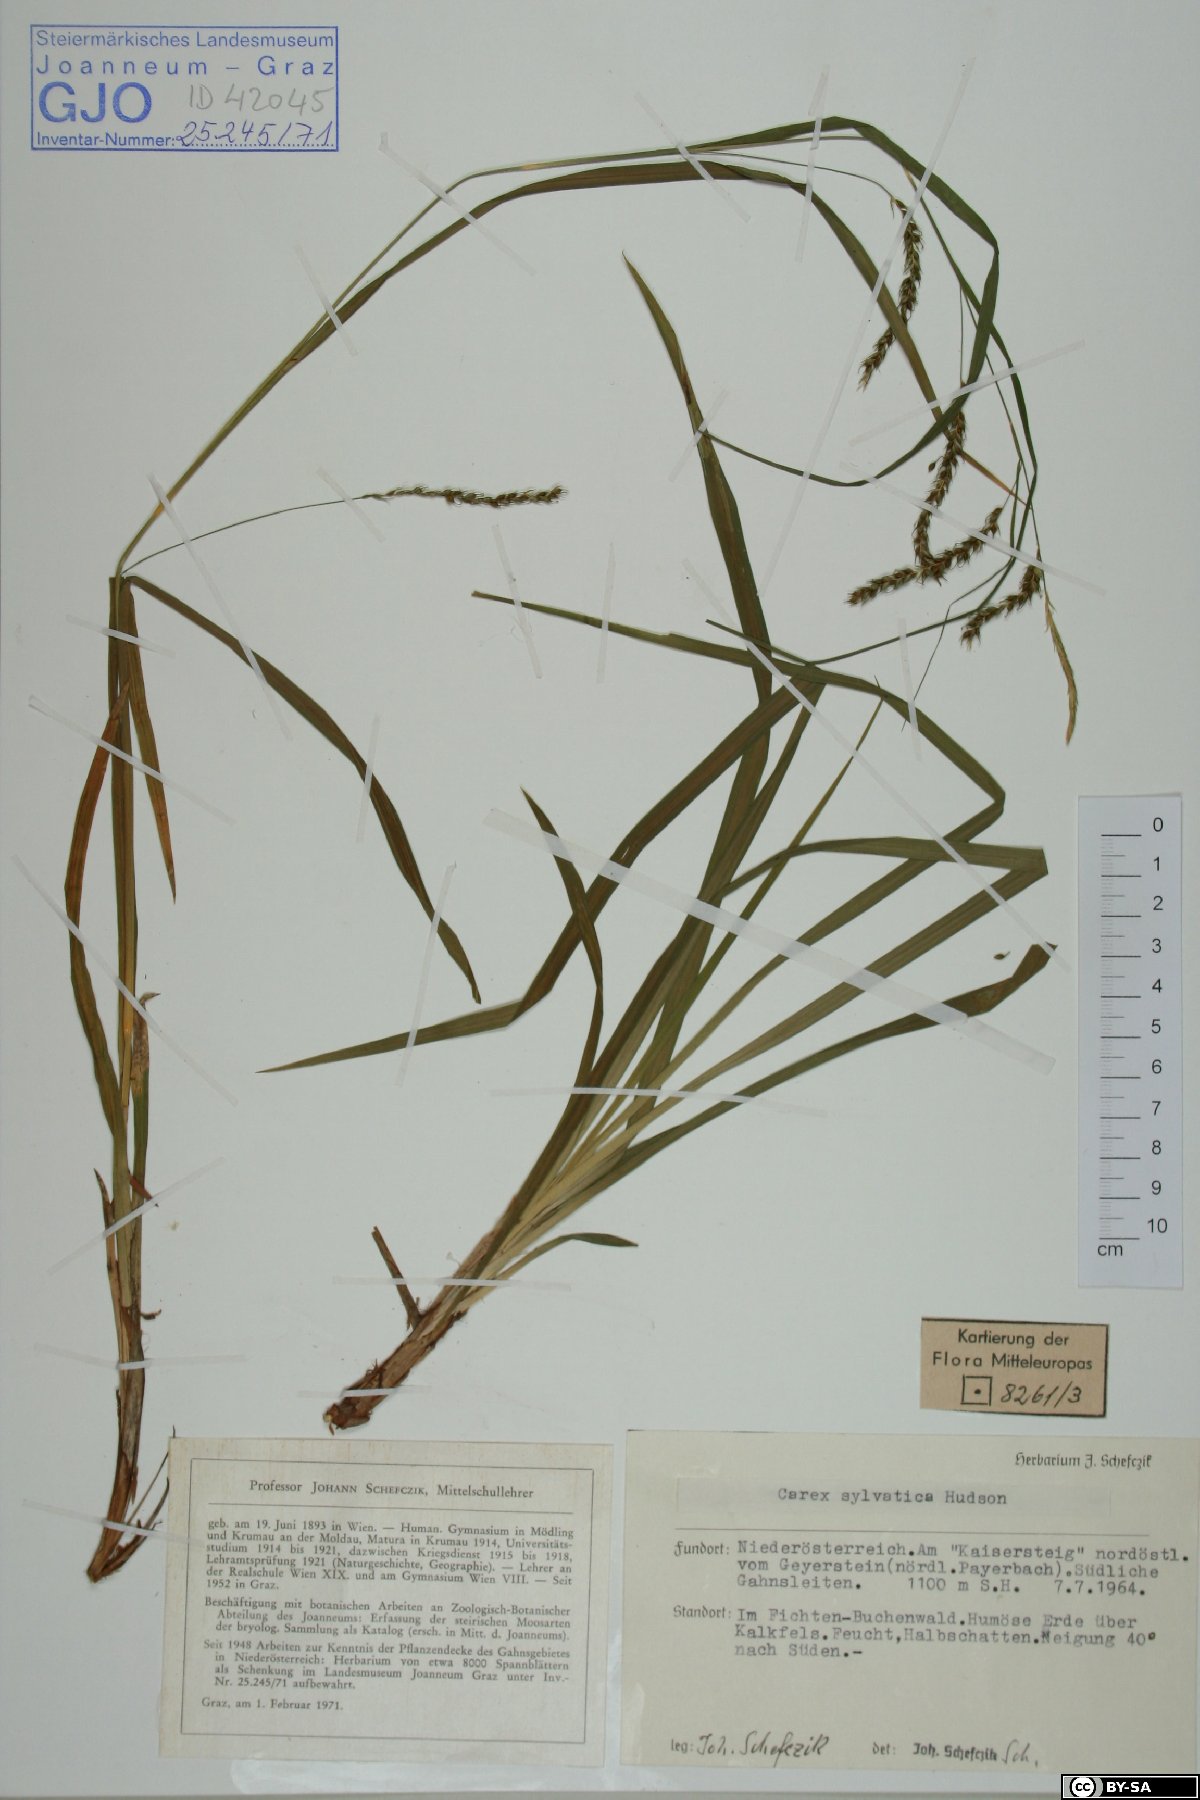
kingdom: Plantae
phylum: Tracheophyta
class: Liliopsida
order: Poales
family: Cyperaceae
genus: Carex
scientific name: Carex sylvatica
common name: Wood-sedge
